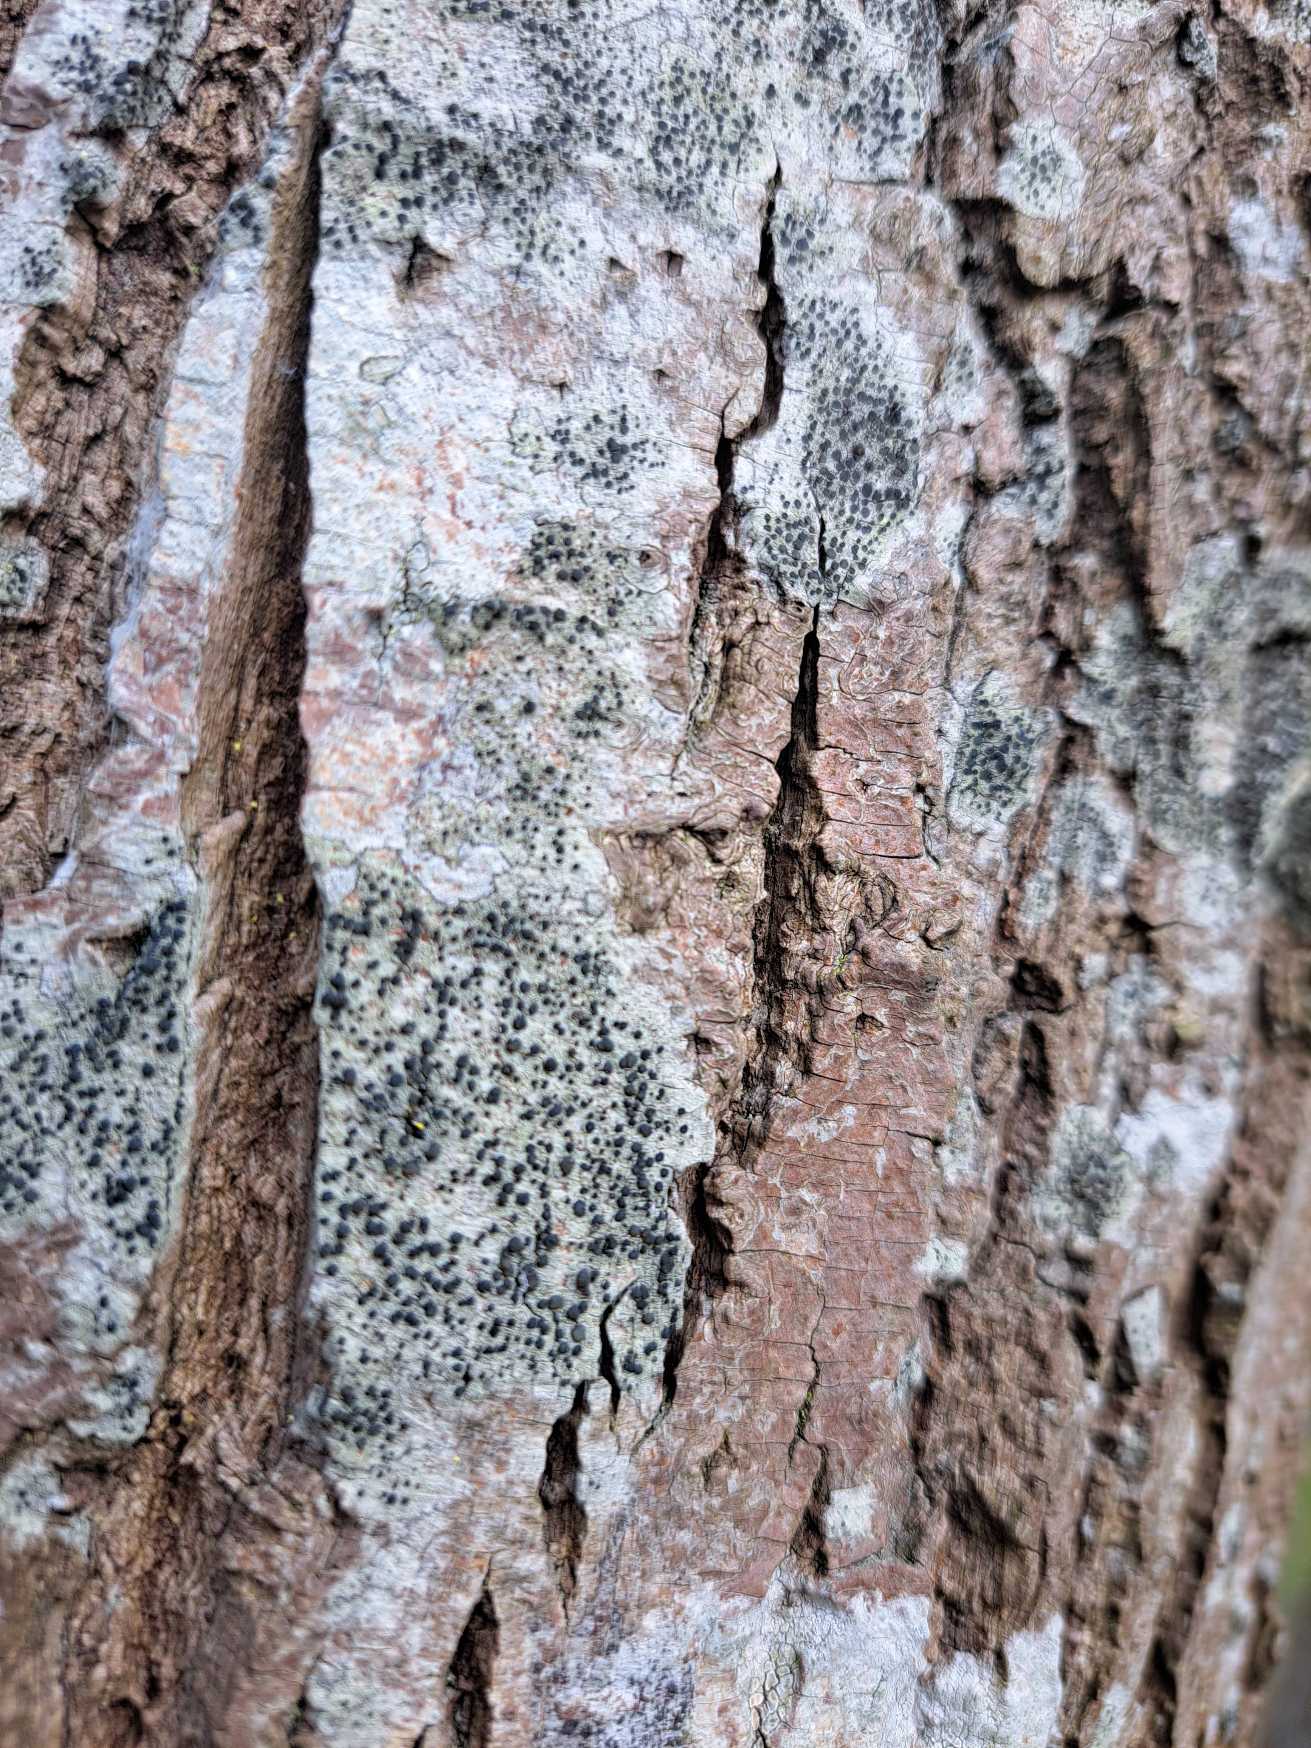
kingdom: Fungi
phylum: Ascomycota
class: Lecanoromycetes
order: Lecanorales
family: Lecanoraceae
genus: Lecidella
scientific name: Lecidella elaeochroma
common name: Grågrøn skivelav
